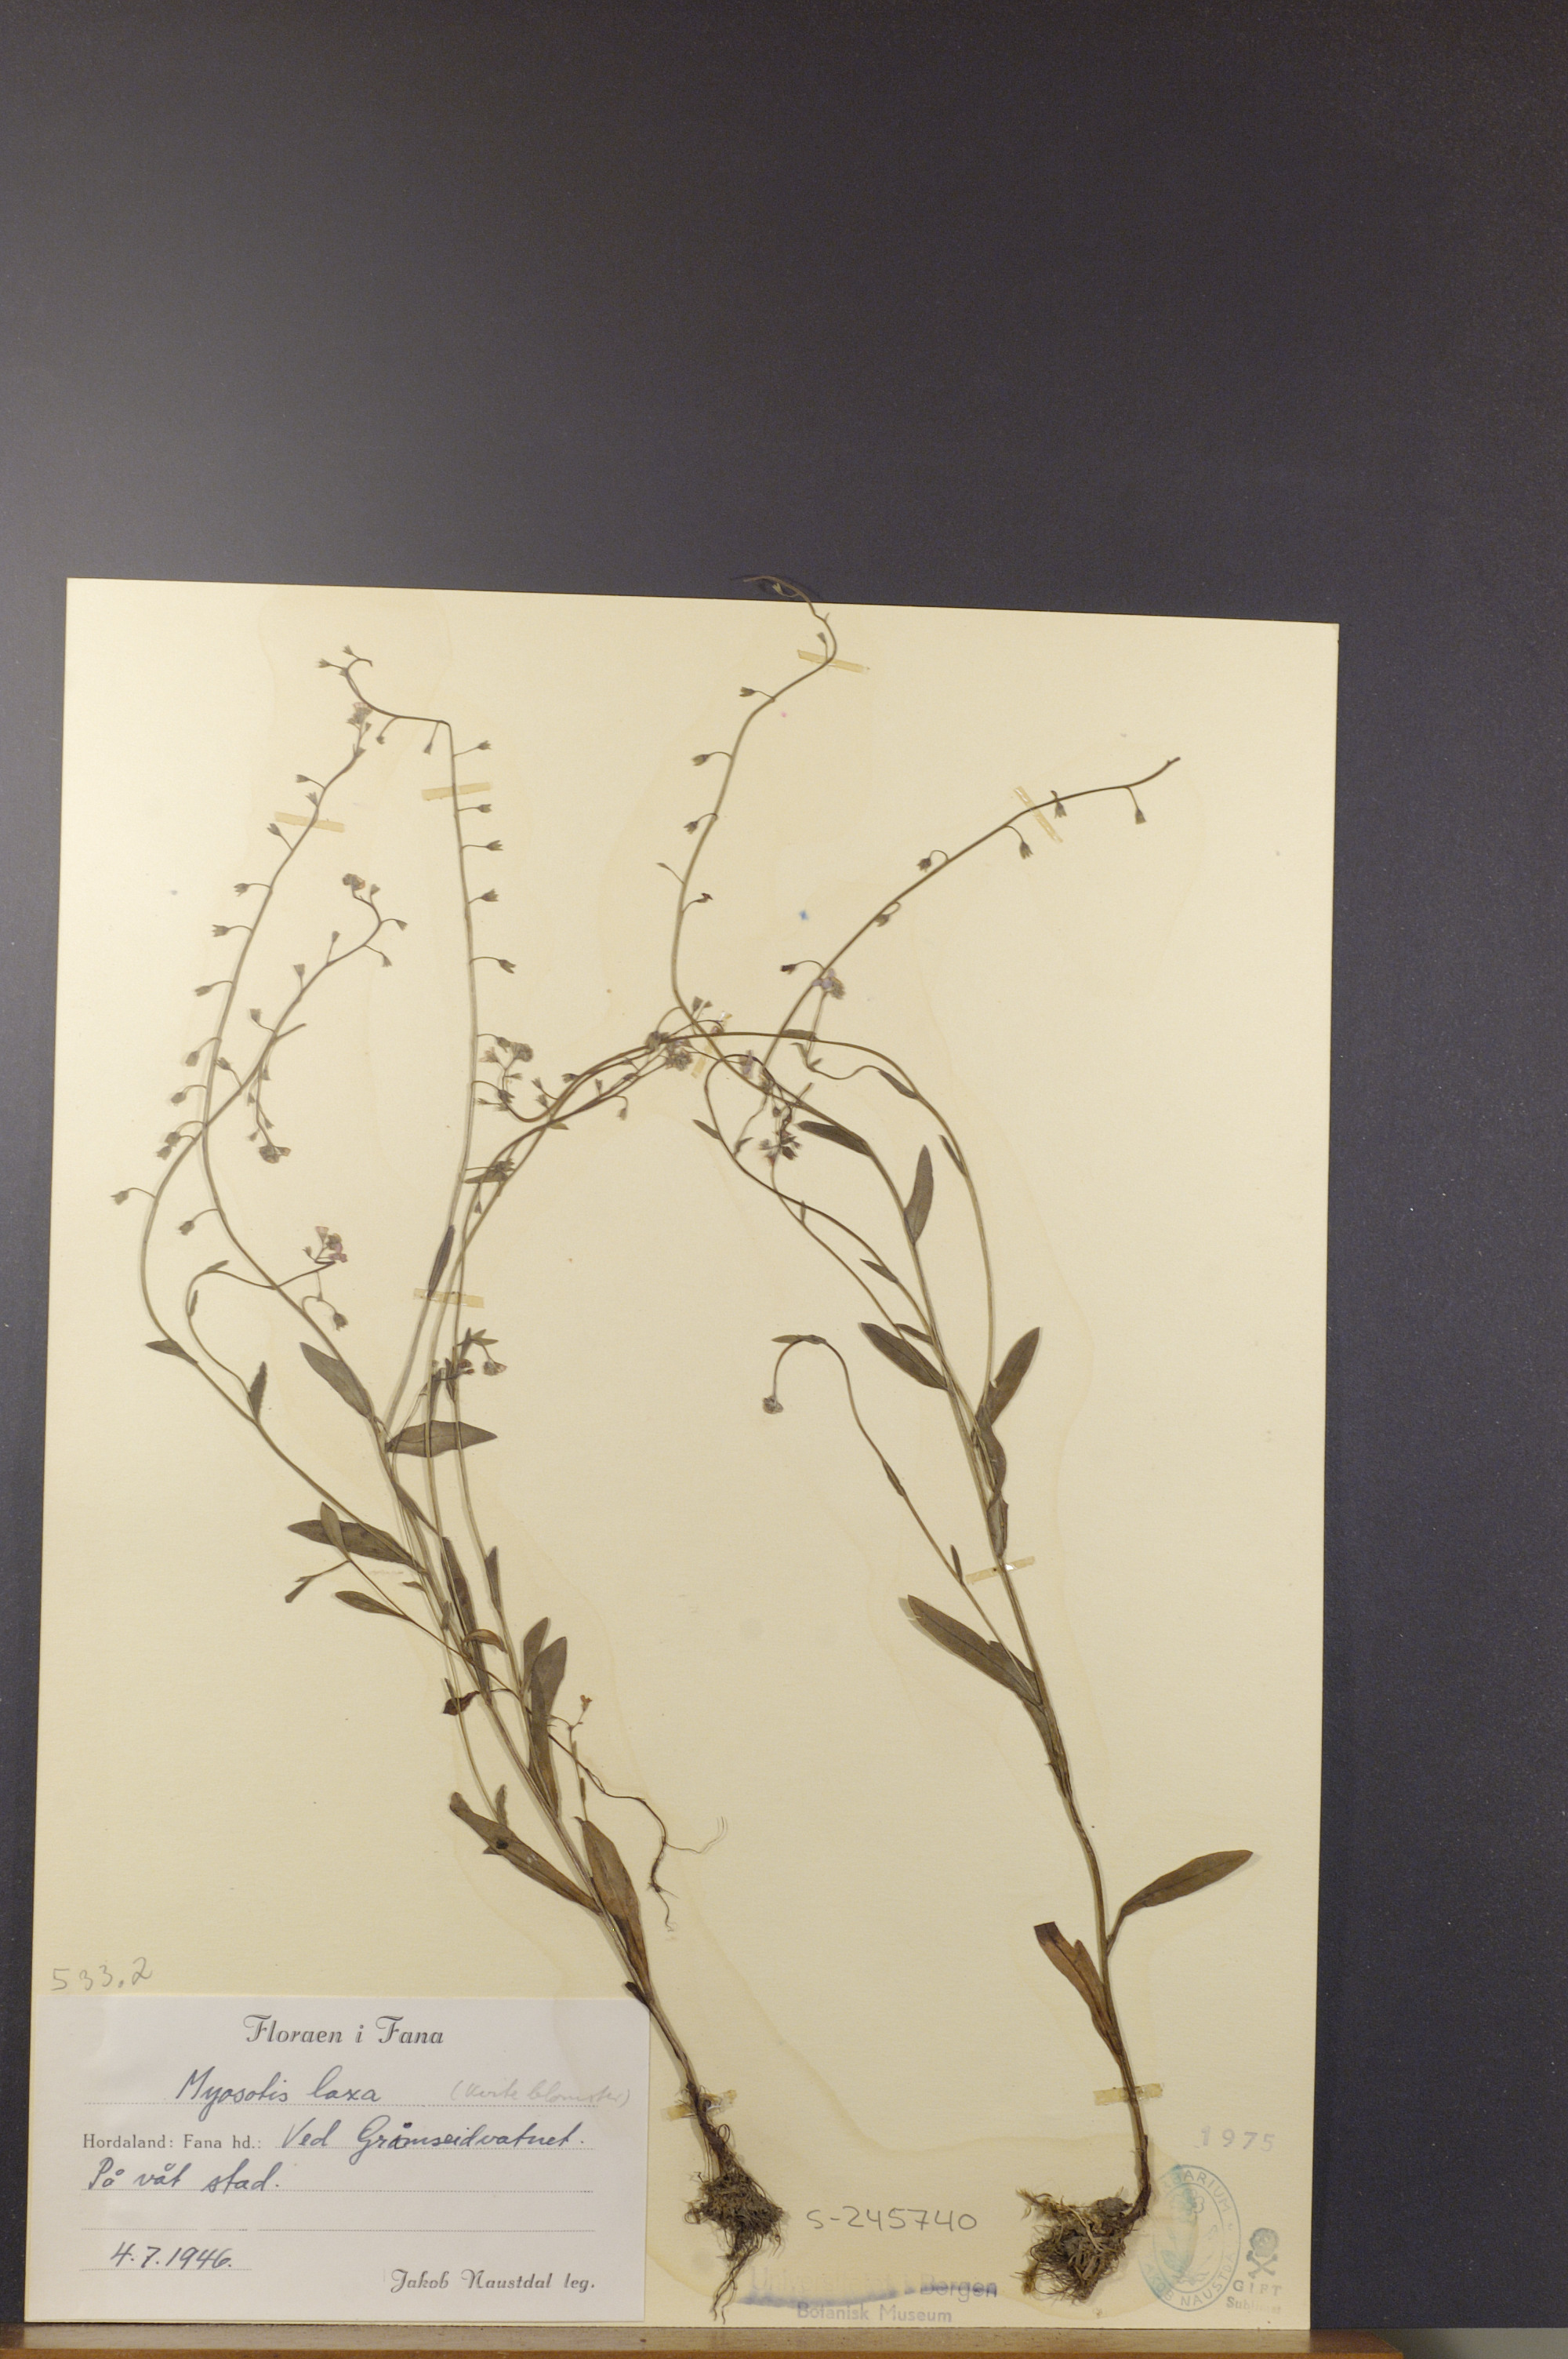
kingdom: Plantae
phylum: Tracheophyta
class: Magnoliopsida
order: Boraginales
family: Boraginaceae
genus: Myosotis
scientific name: Myosotis laxa
